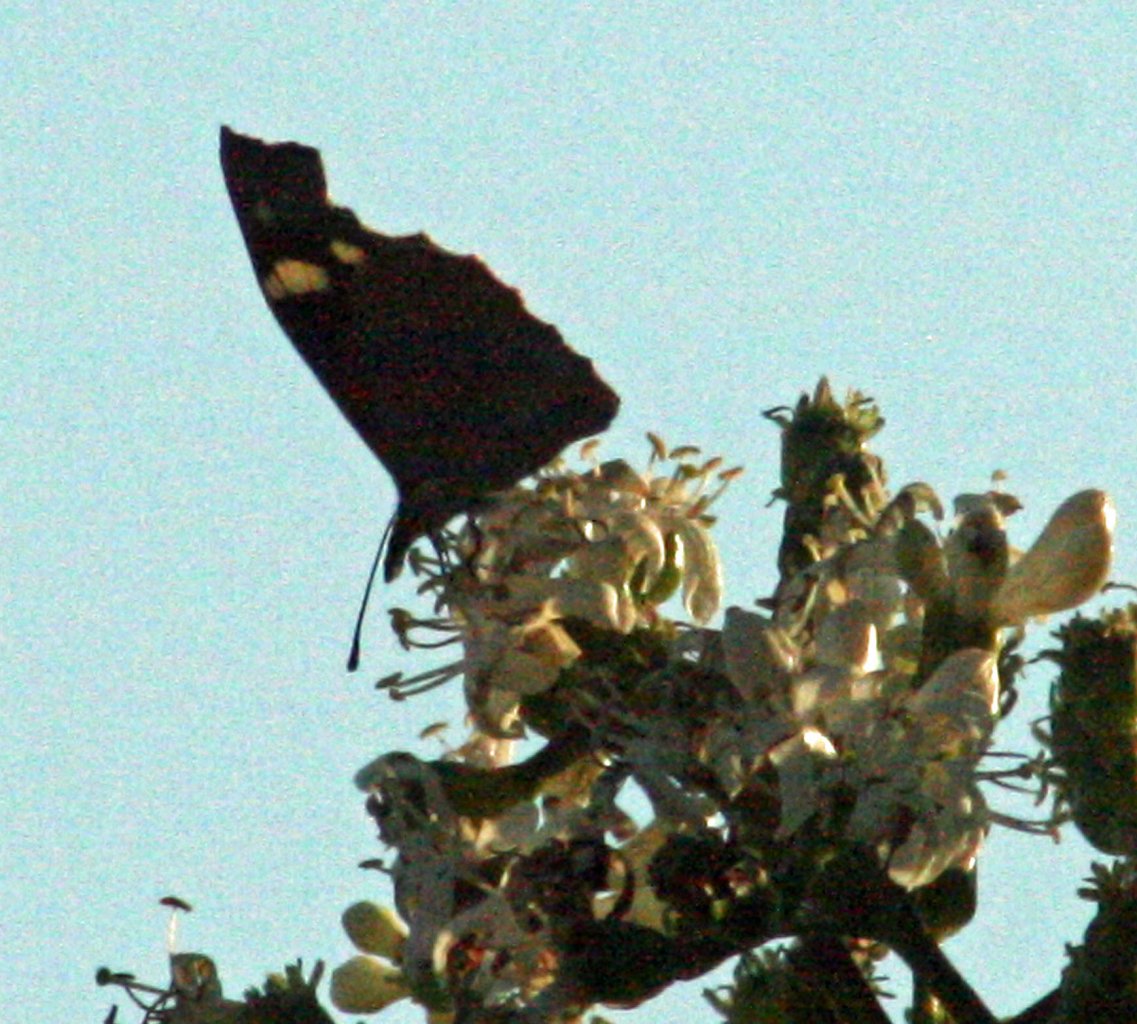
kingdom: Animalia
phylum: Arthropoda
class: Insecta
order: Lepidoptera
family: Nymphalidae
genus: Libytheana
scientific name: Libytheana carinenta
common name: American Snout
